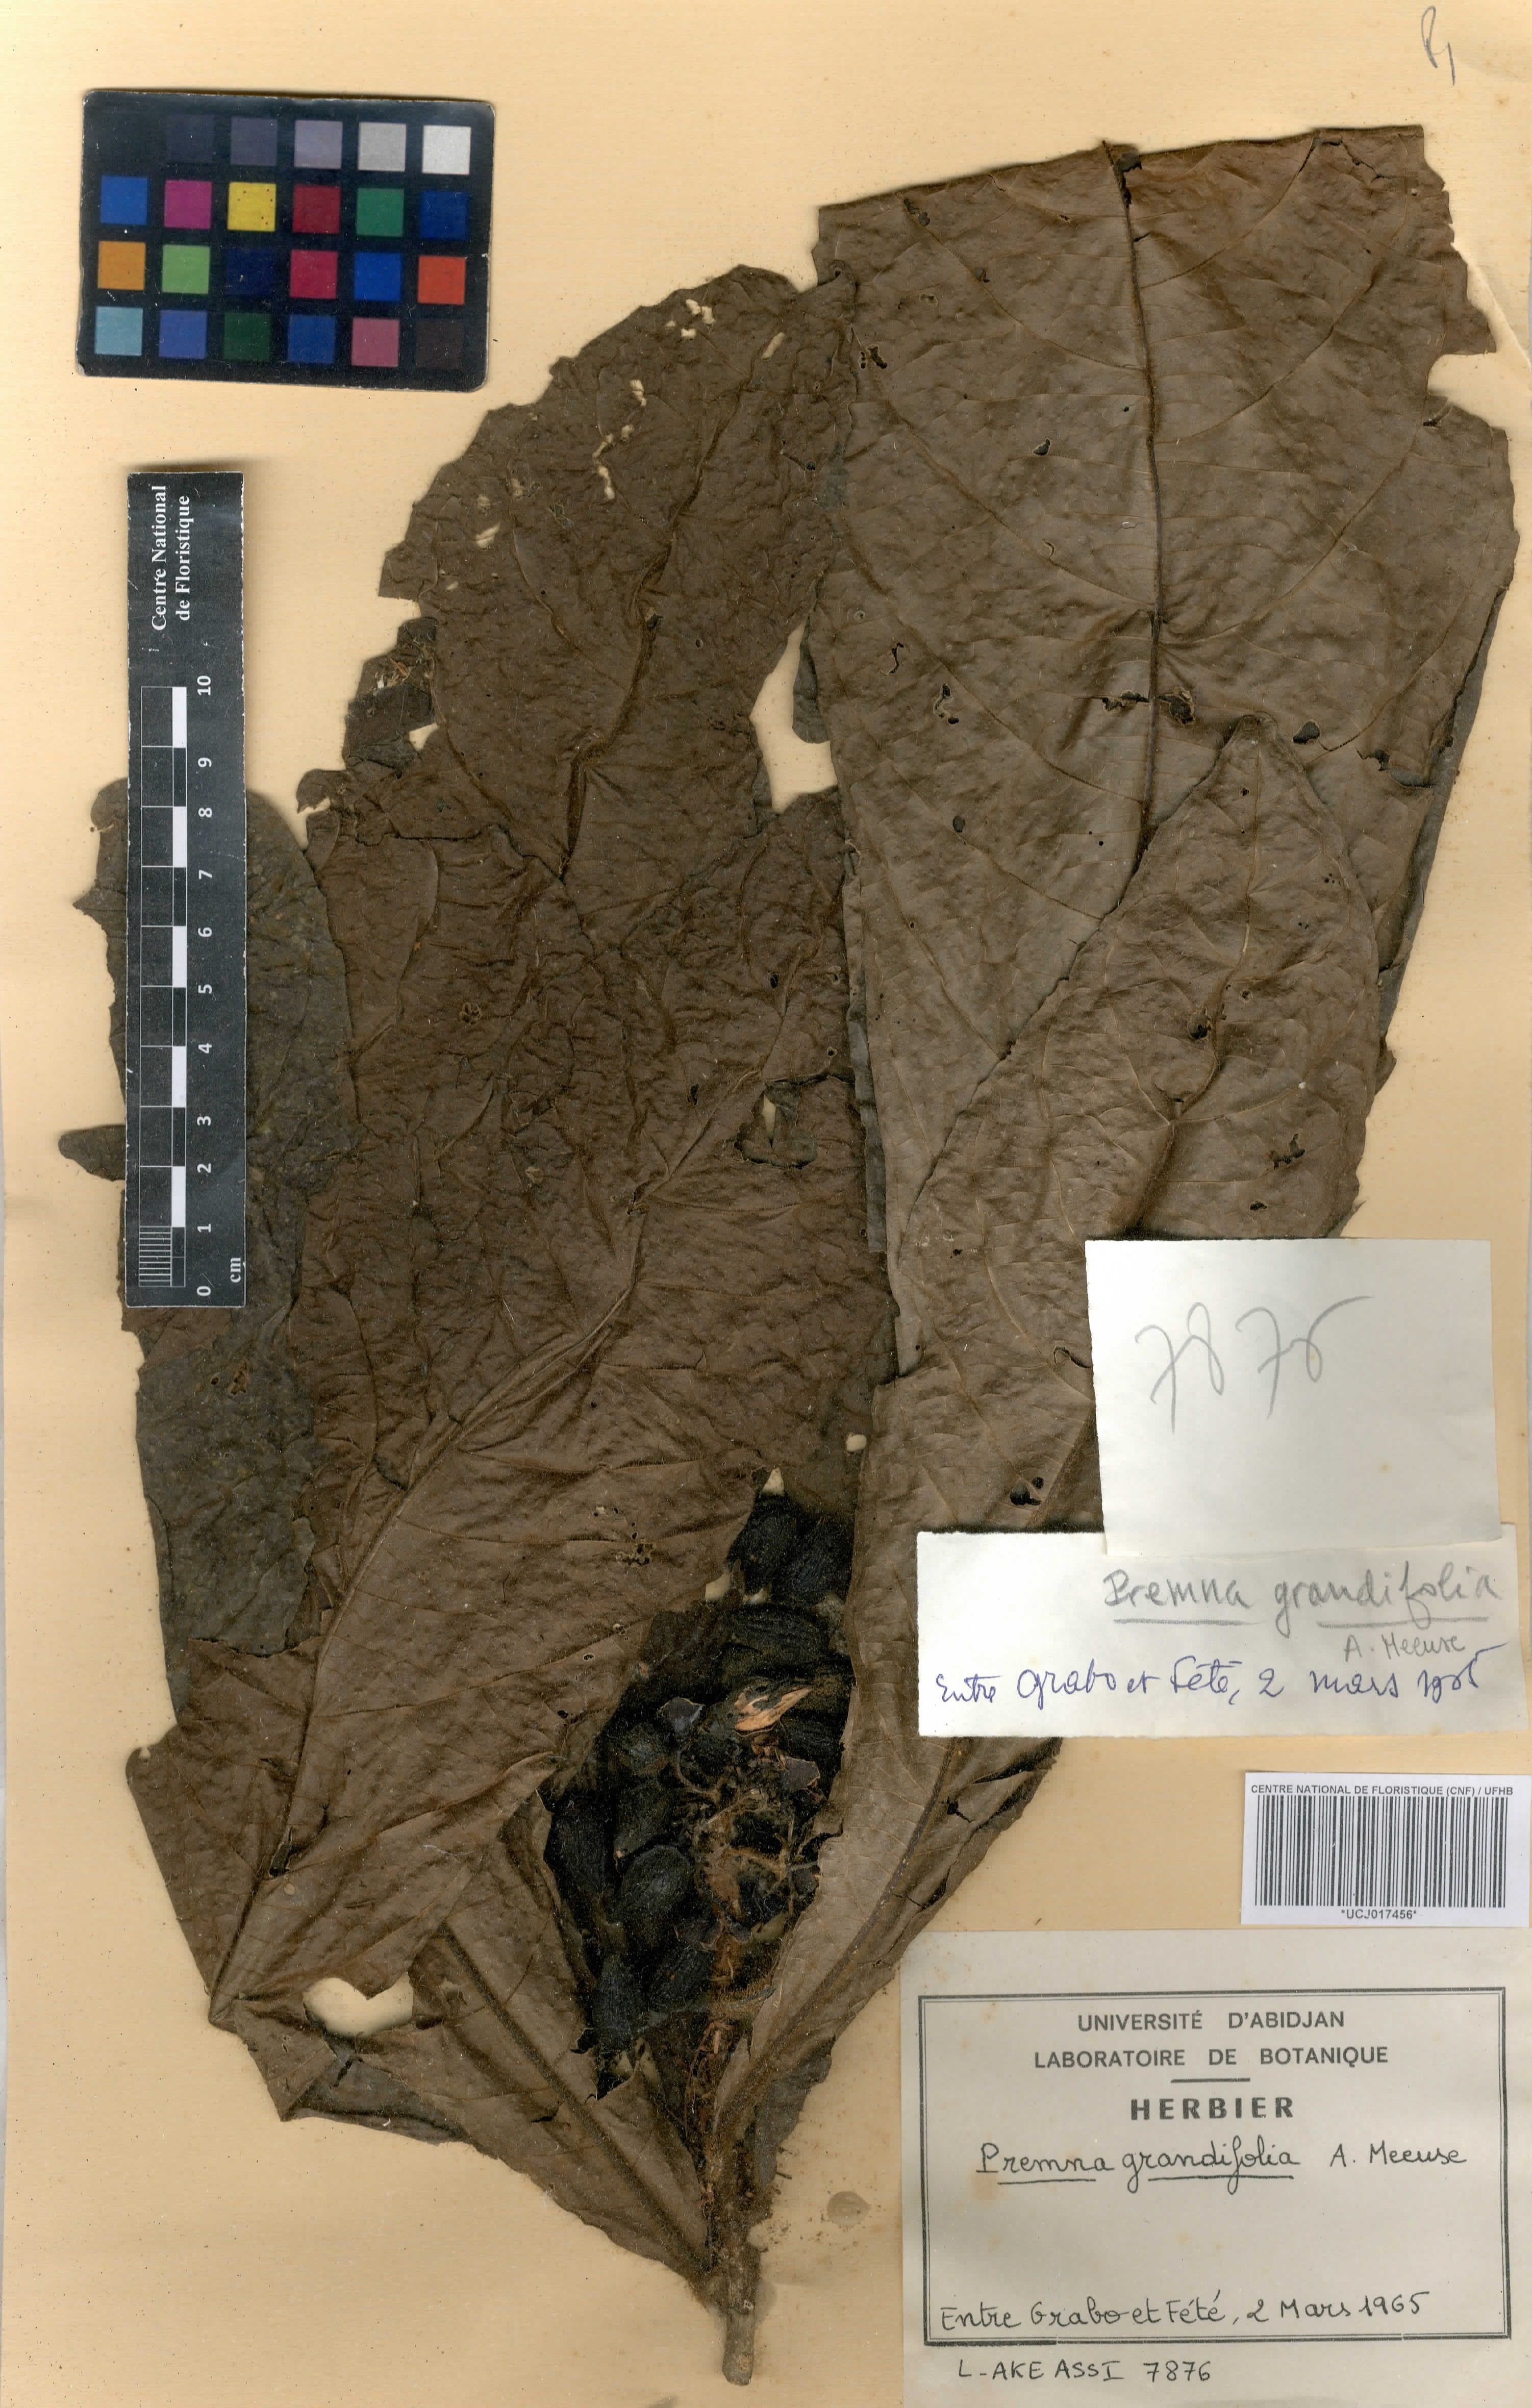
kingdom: Plantae
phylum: Tracheophyta
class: Magnoliopsida
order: Lamiales
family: Lamiaceae
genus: Premna
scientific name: Premna hutchinsonii
